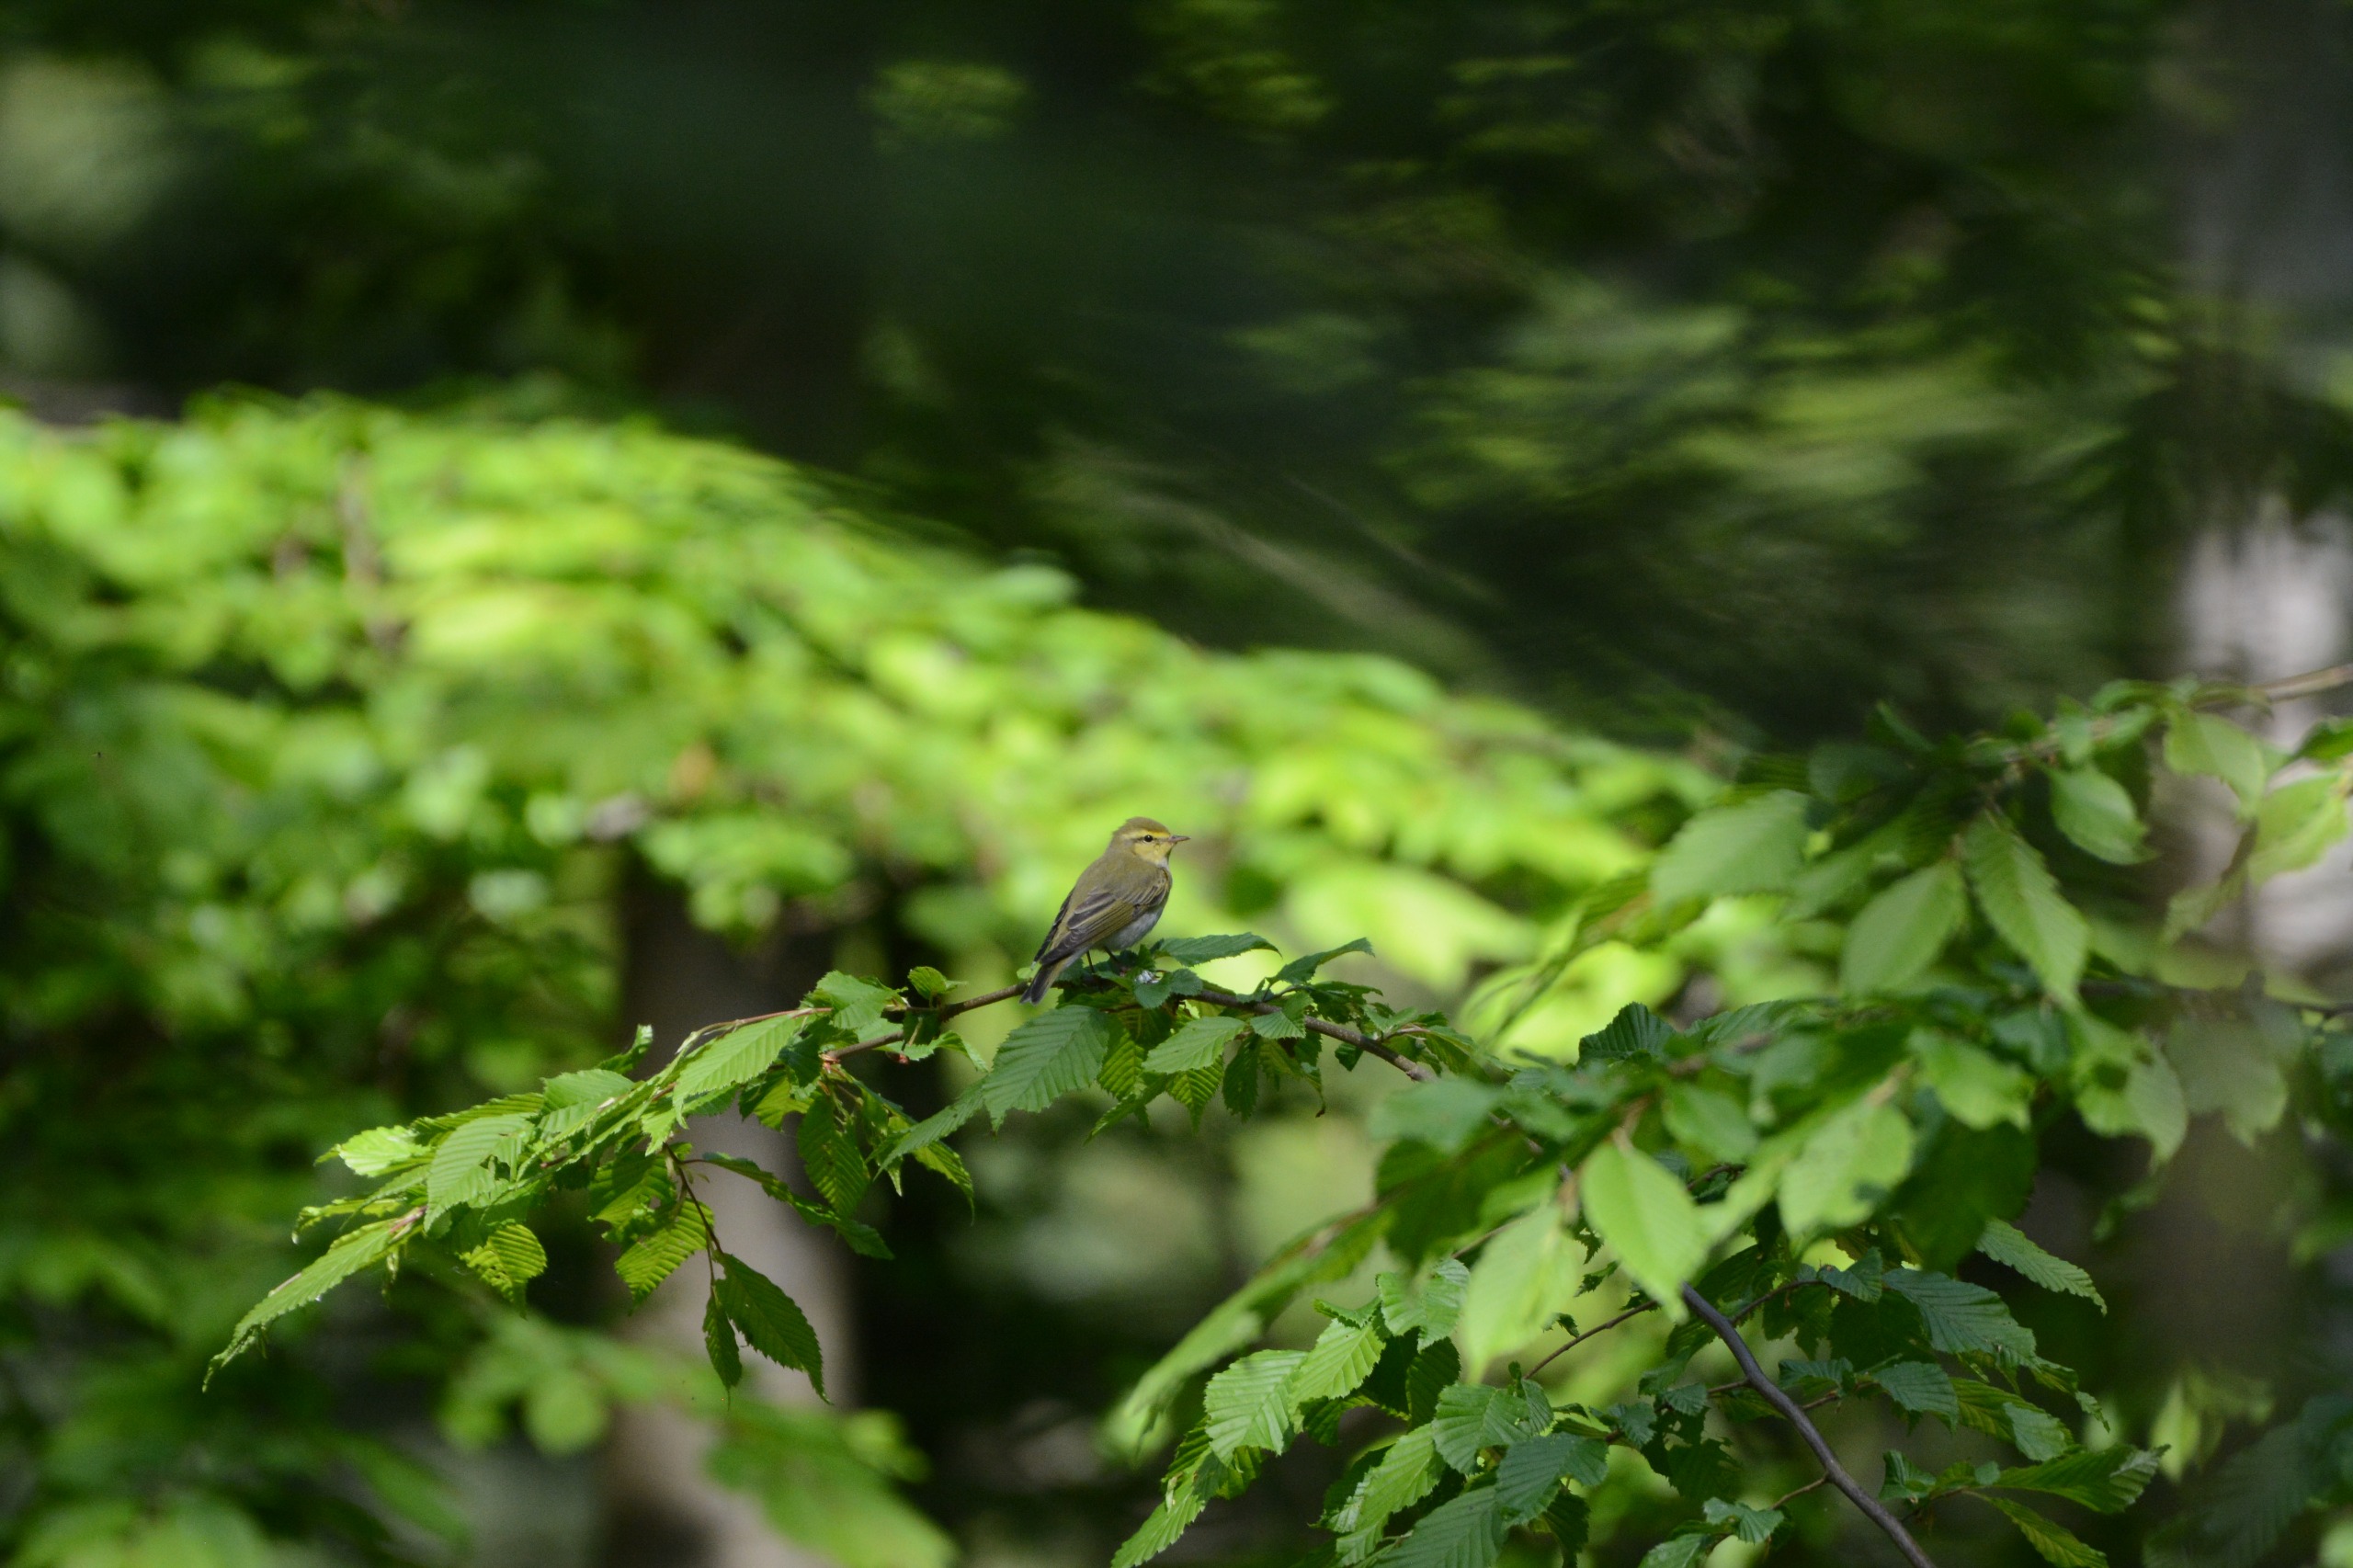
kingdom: Animalia
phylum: Chordata
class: Aves
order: Passeriformes
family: Phylloscopidae
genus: Phylloscopus
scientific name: Phylloscopus sibillatrix
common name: Skovsanger
